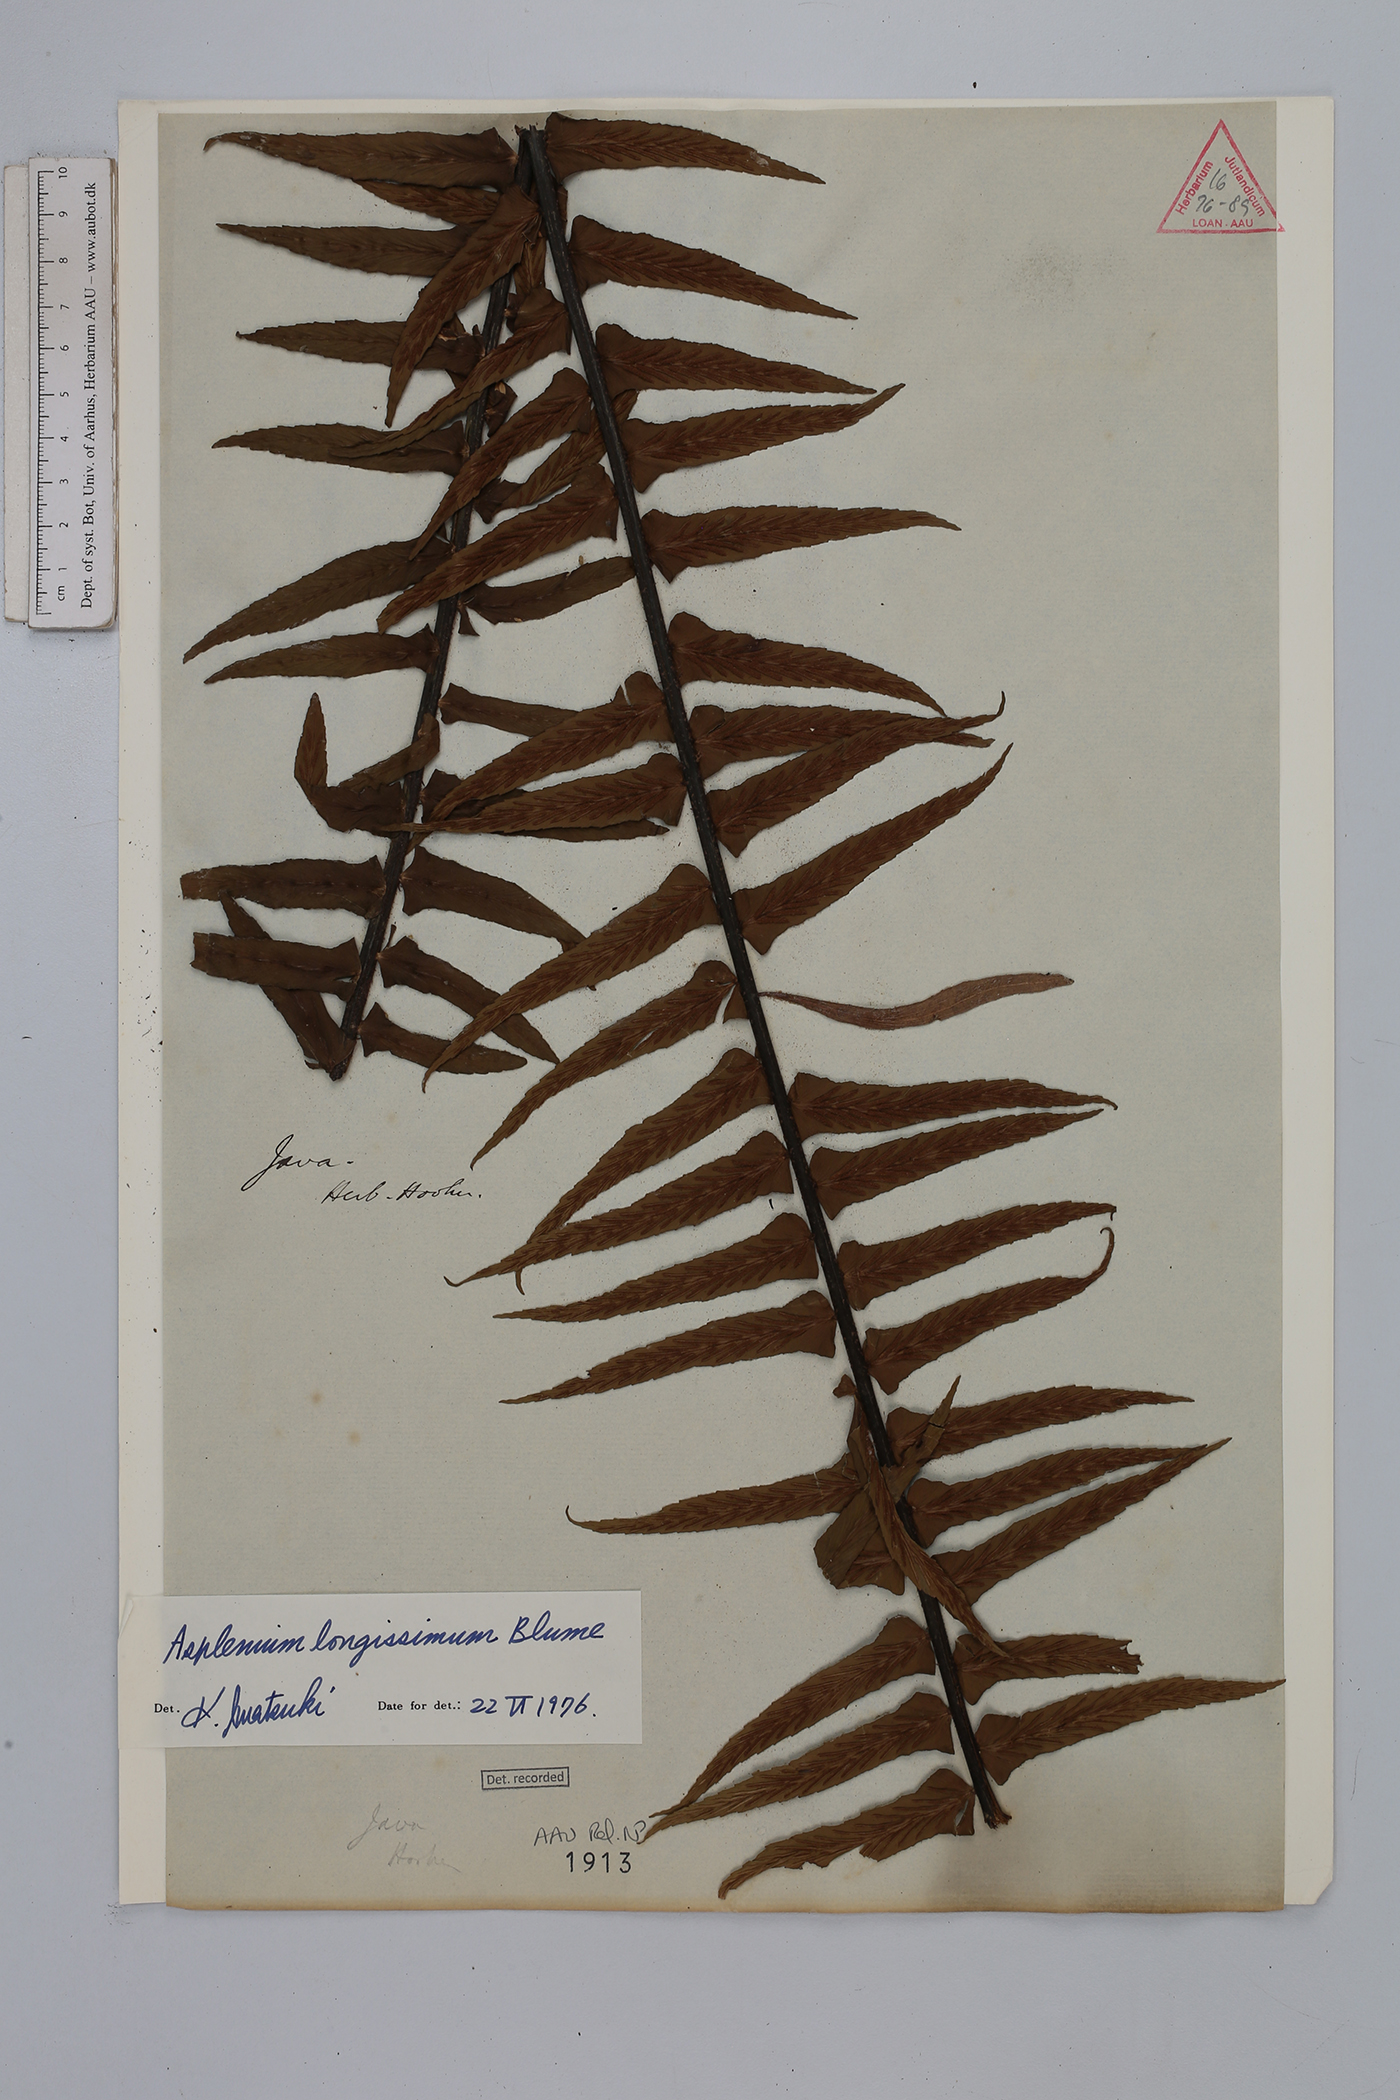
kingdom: Plantae
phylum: Tracheophyta
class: Polypodiopsida
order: Polypodiales
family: Aspleniaceae
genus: Asplenium
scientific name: Asplenium longissimum
